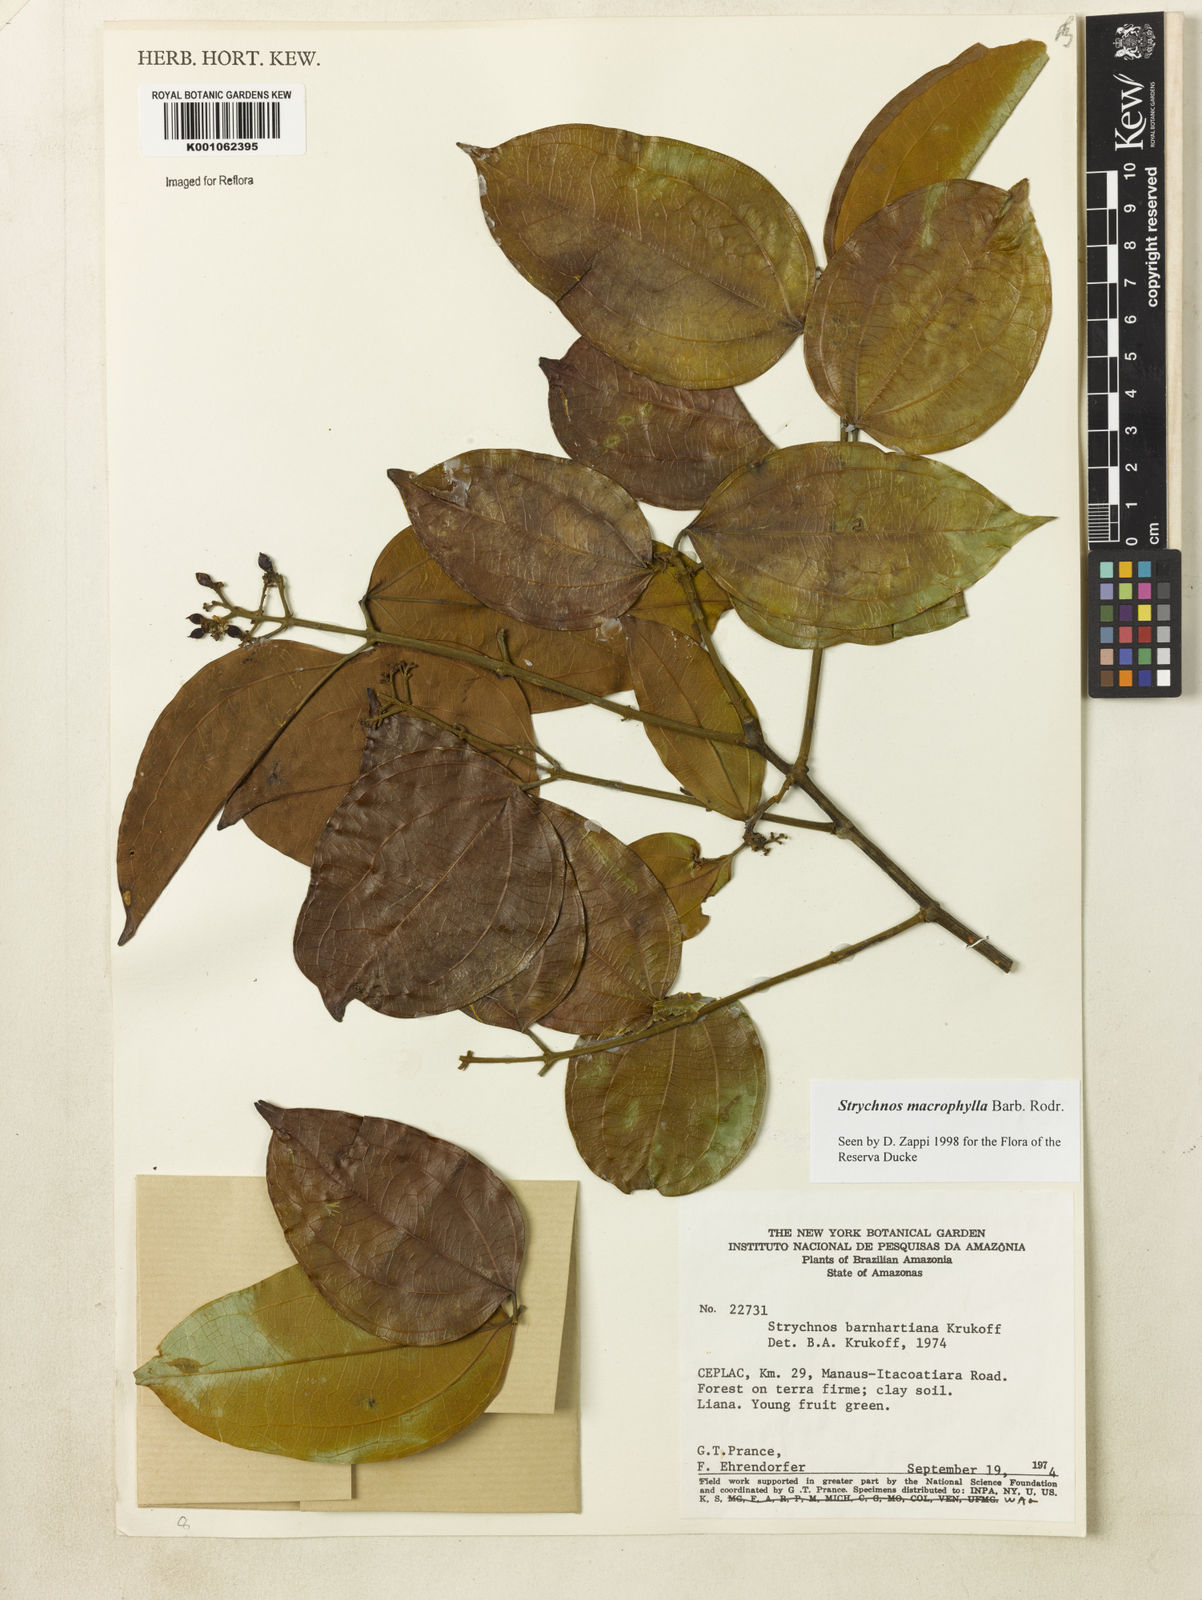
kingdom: Plantae
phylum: Tracheophyta
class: Magnoliopsida
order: Gentianales
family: Loganiaceae
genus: Strychnos
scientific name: Strychnos
